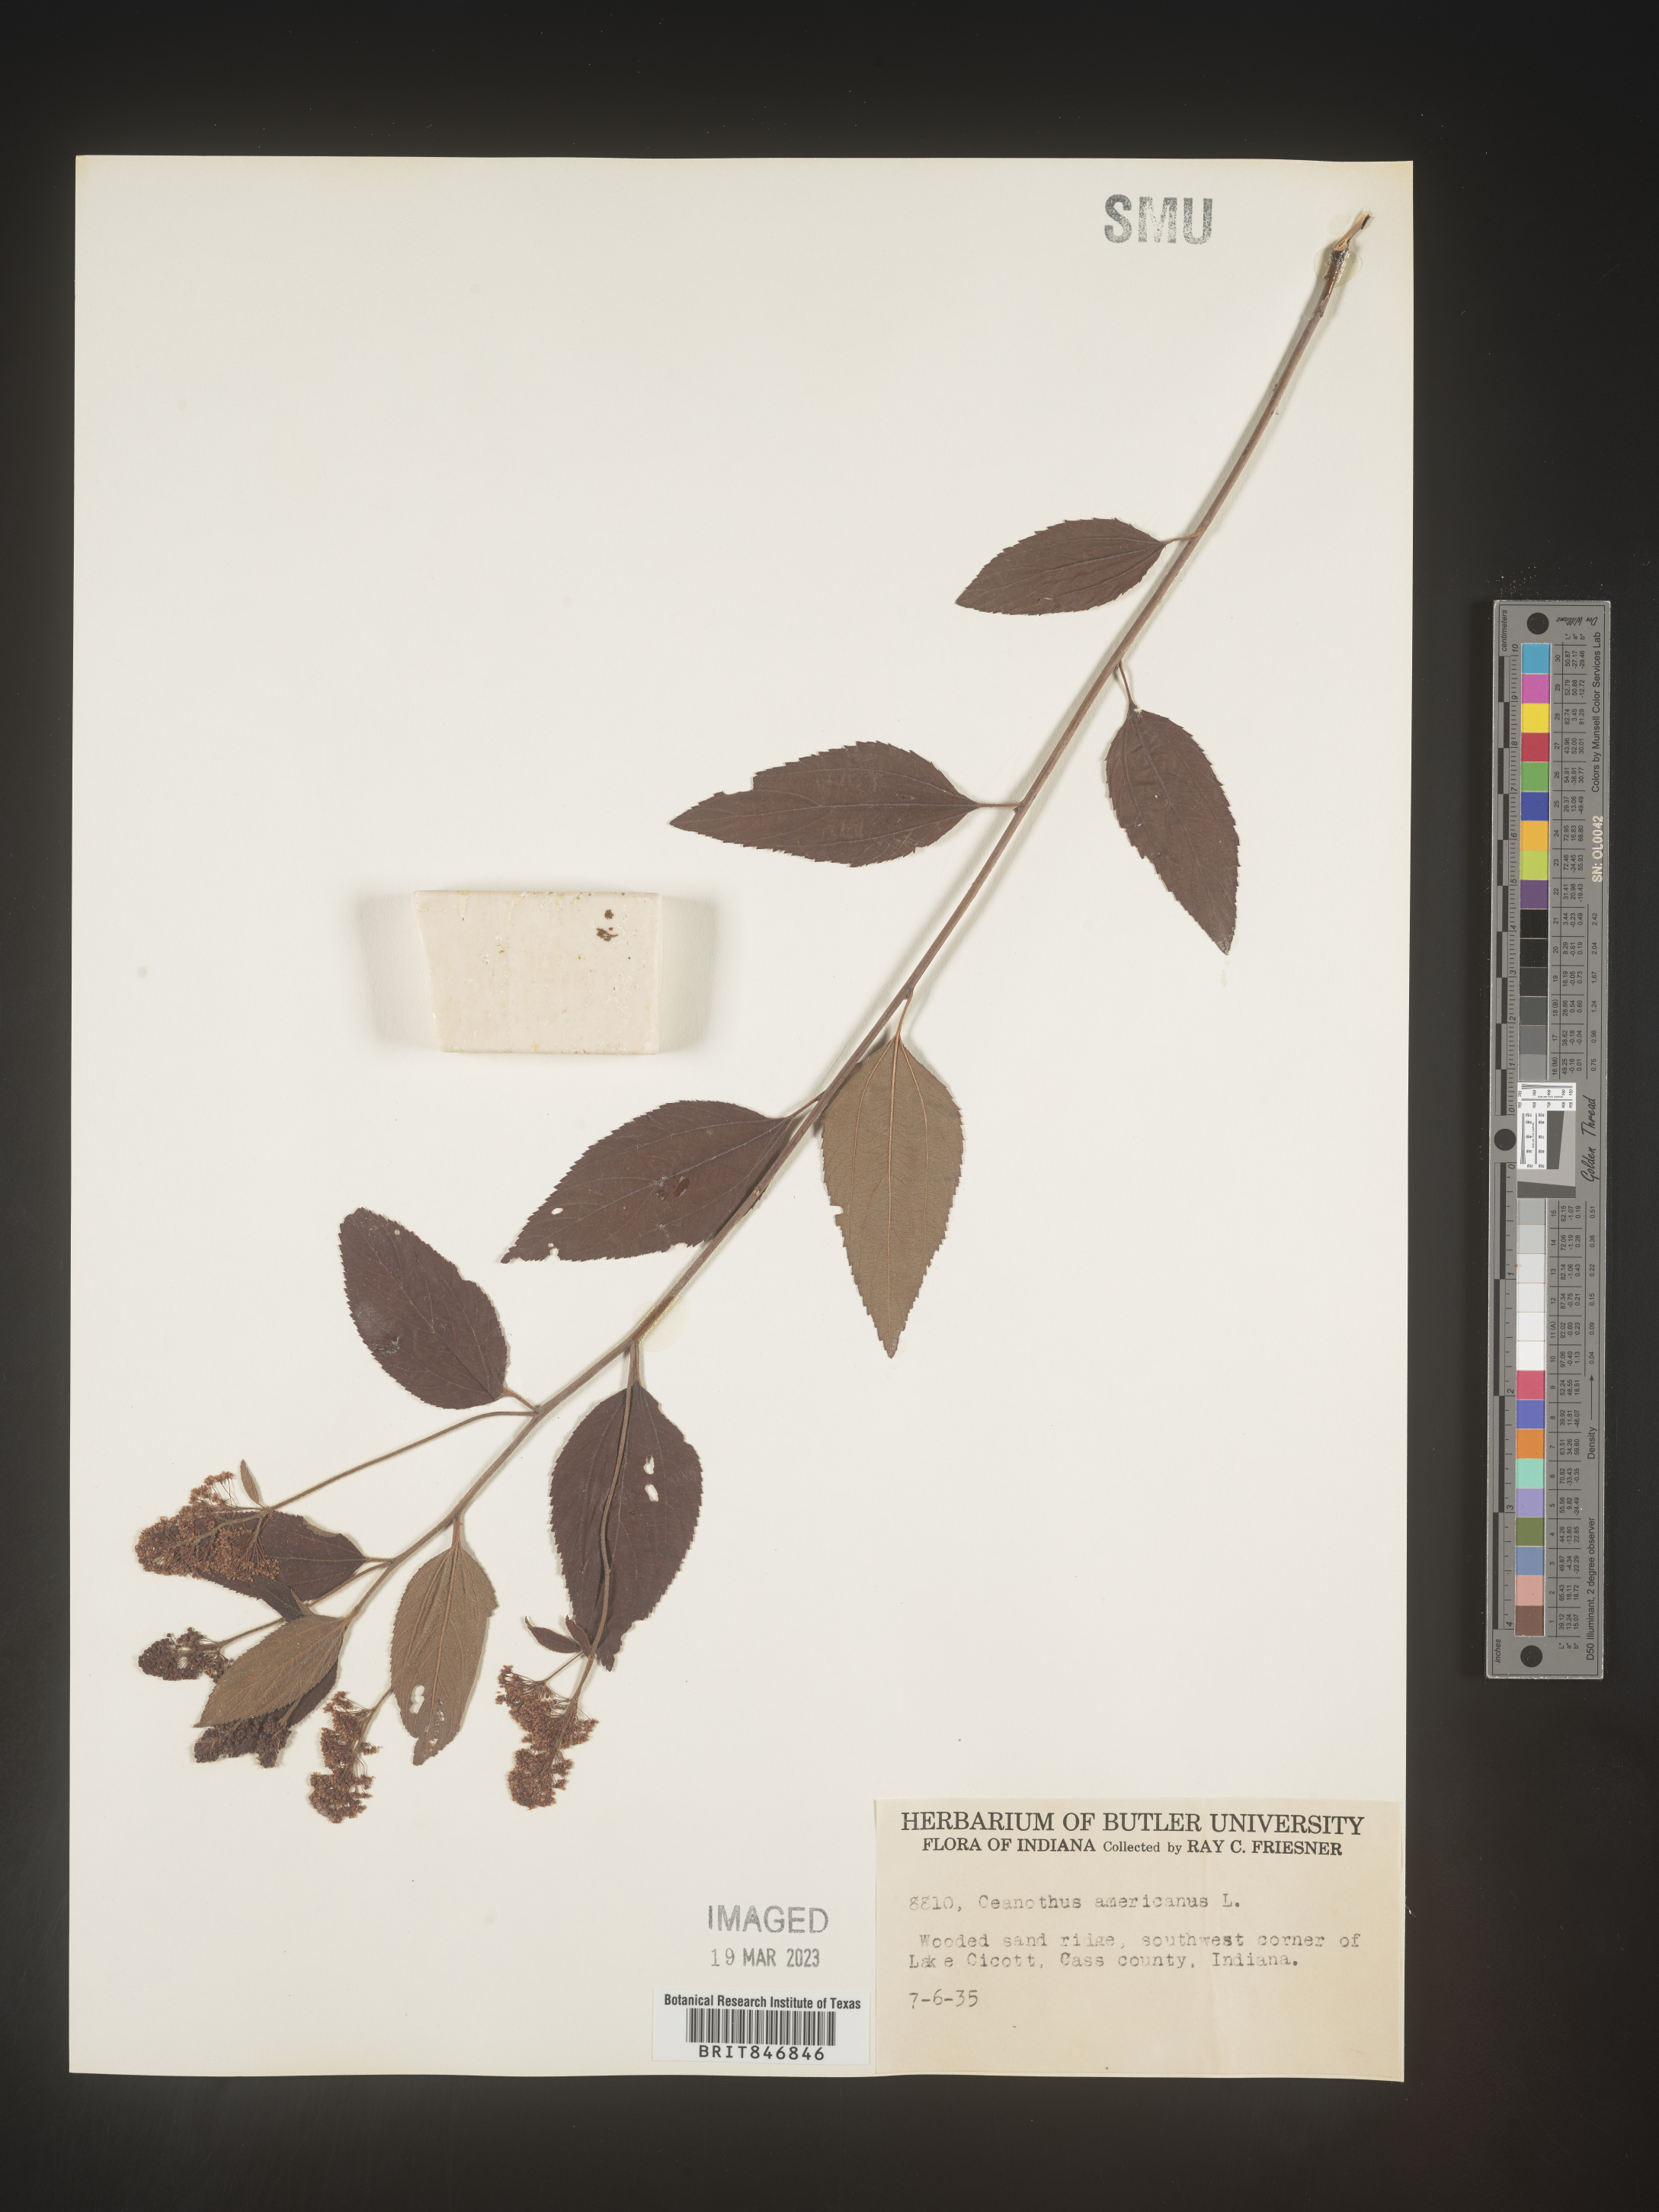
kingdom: Plantae
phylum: Tracheophyta
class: Magnoliopsida
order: Rosales
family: Rhamnaceae
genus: Ceanothus
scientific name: Ceanothus americanus
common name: Redroot
